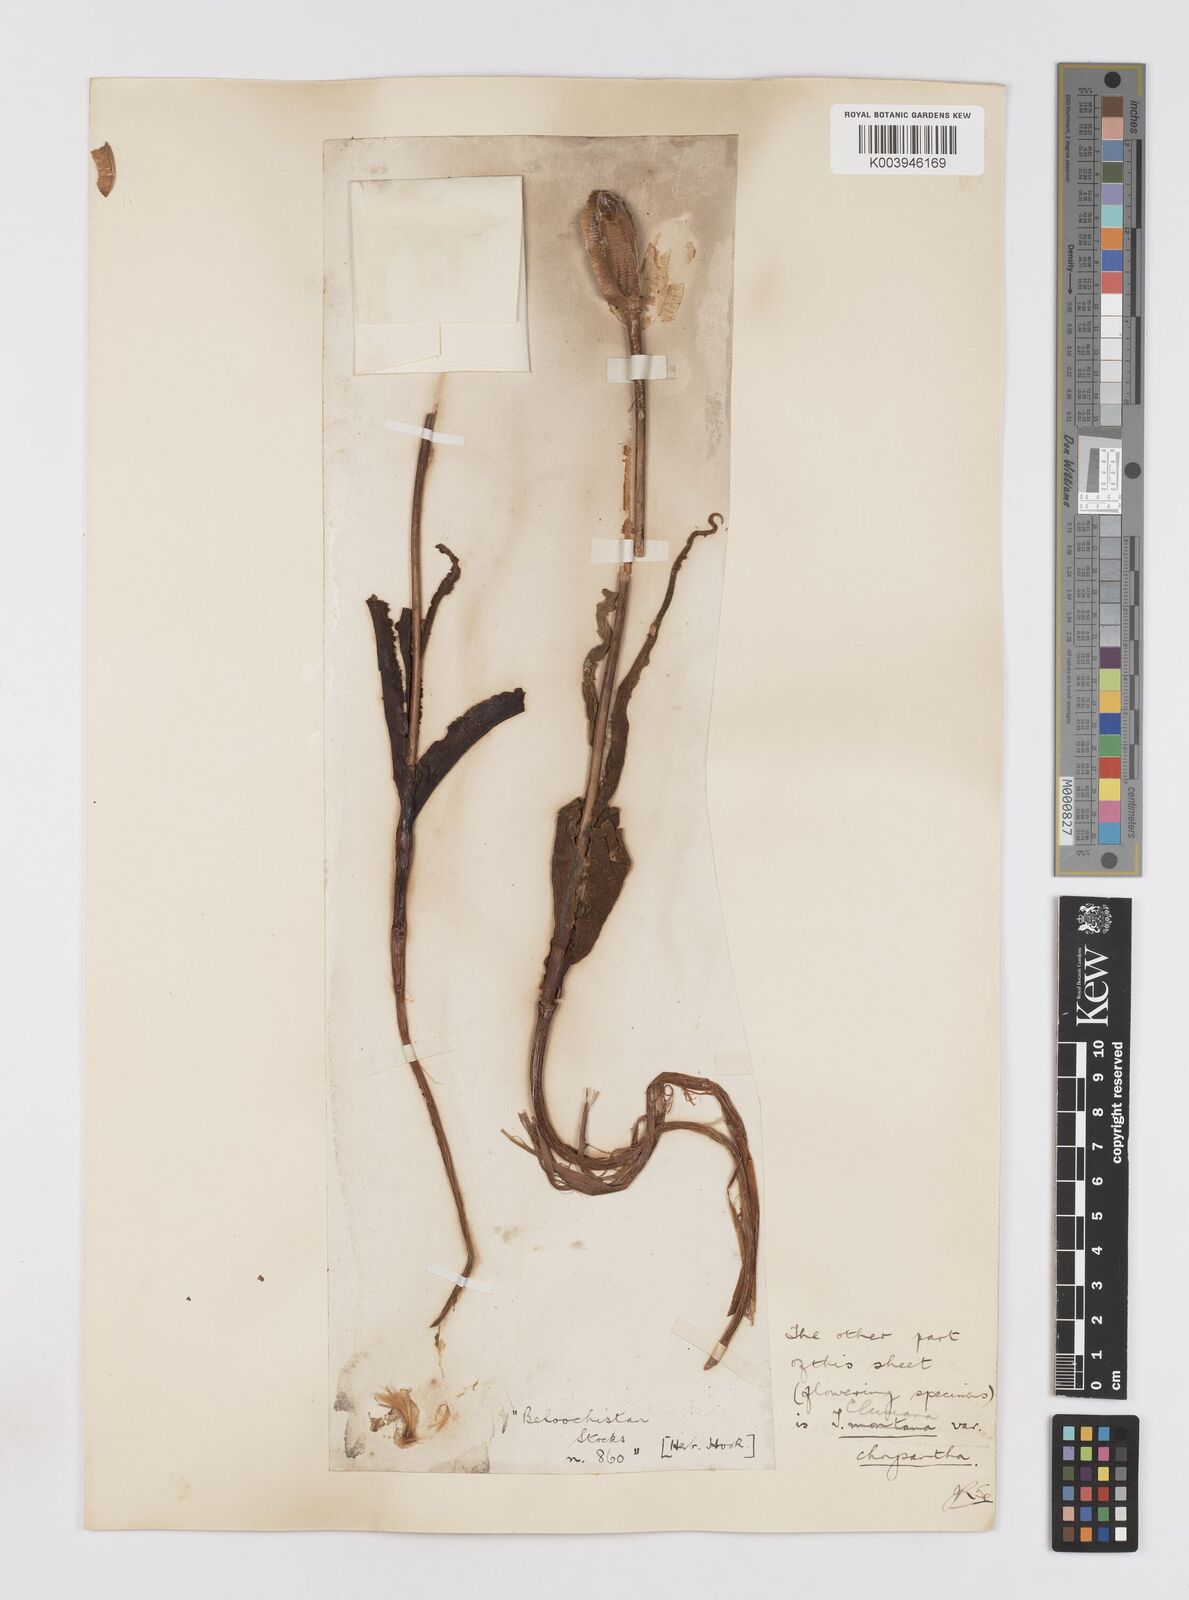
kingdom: Plantae
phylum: Tracheophyta
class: Liliopsida
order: Liliales
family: Liliaceae
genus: Tulipa
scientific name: Tulipa borszczowii
